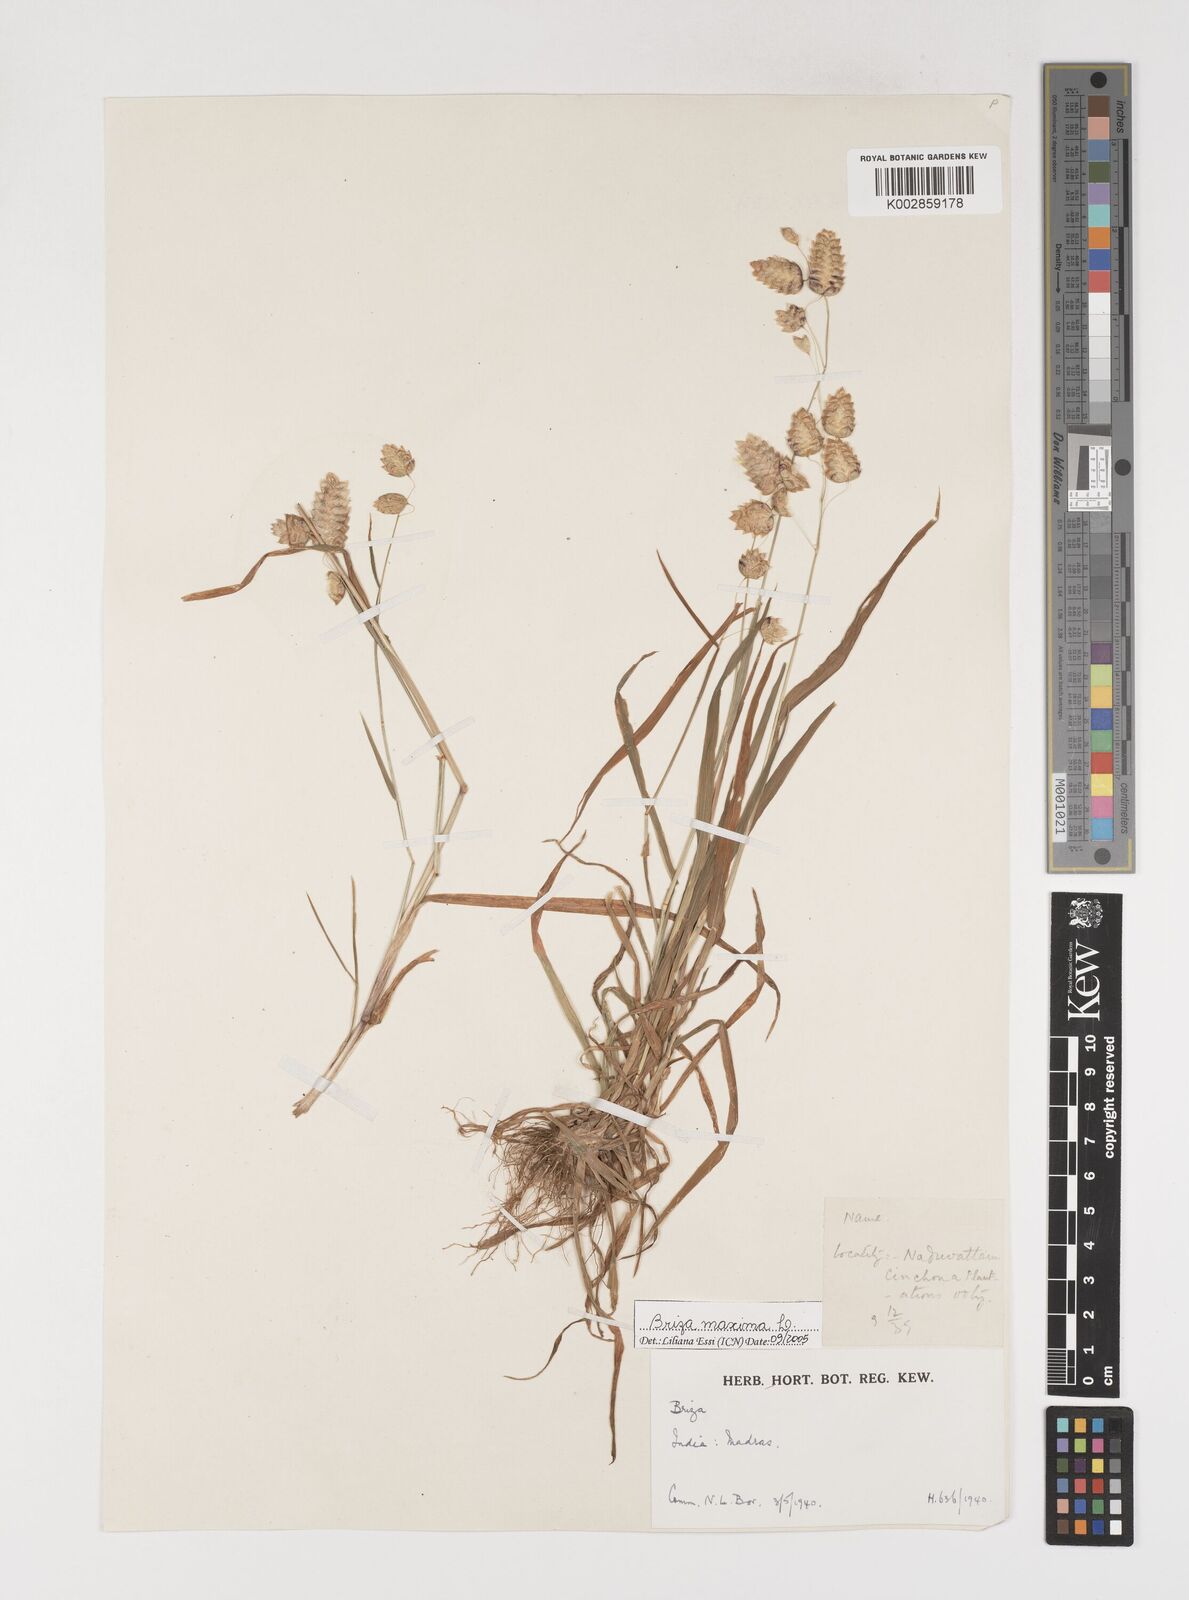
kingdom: Plantae
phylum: Tracheophyta
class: Liliopsida
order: Poales
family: Poaceae
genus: Briza
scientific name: Briza maxima
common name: Big quakinggrass
